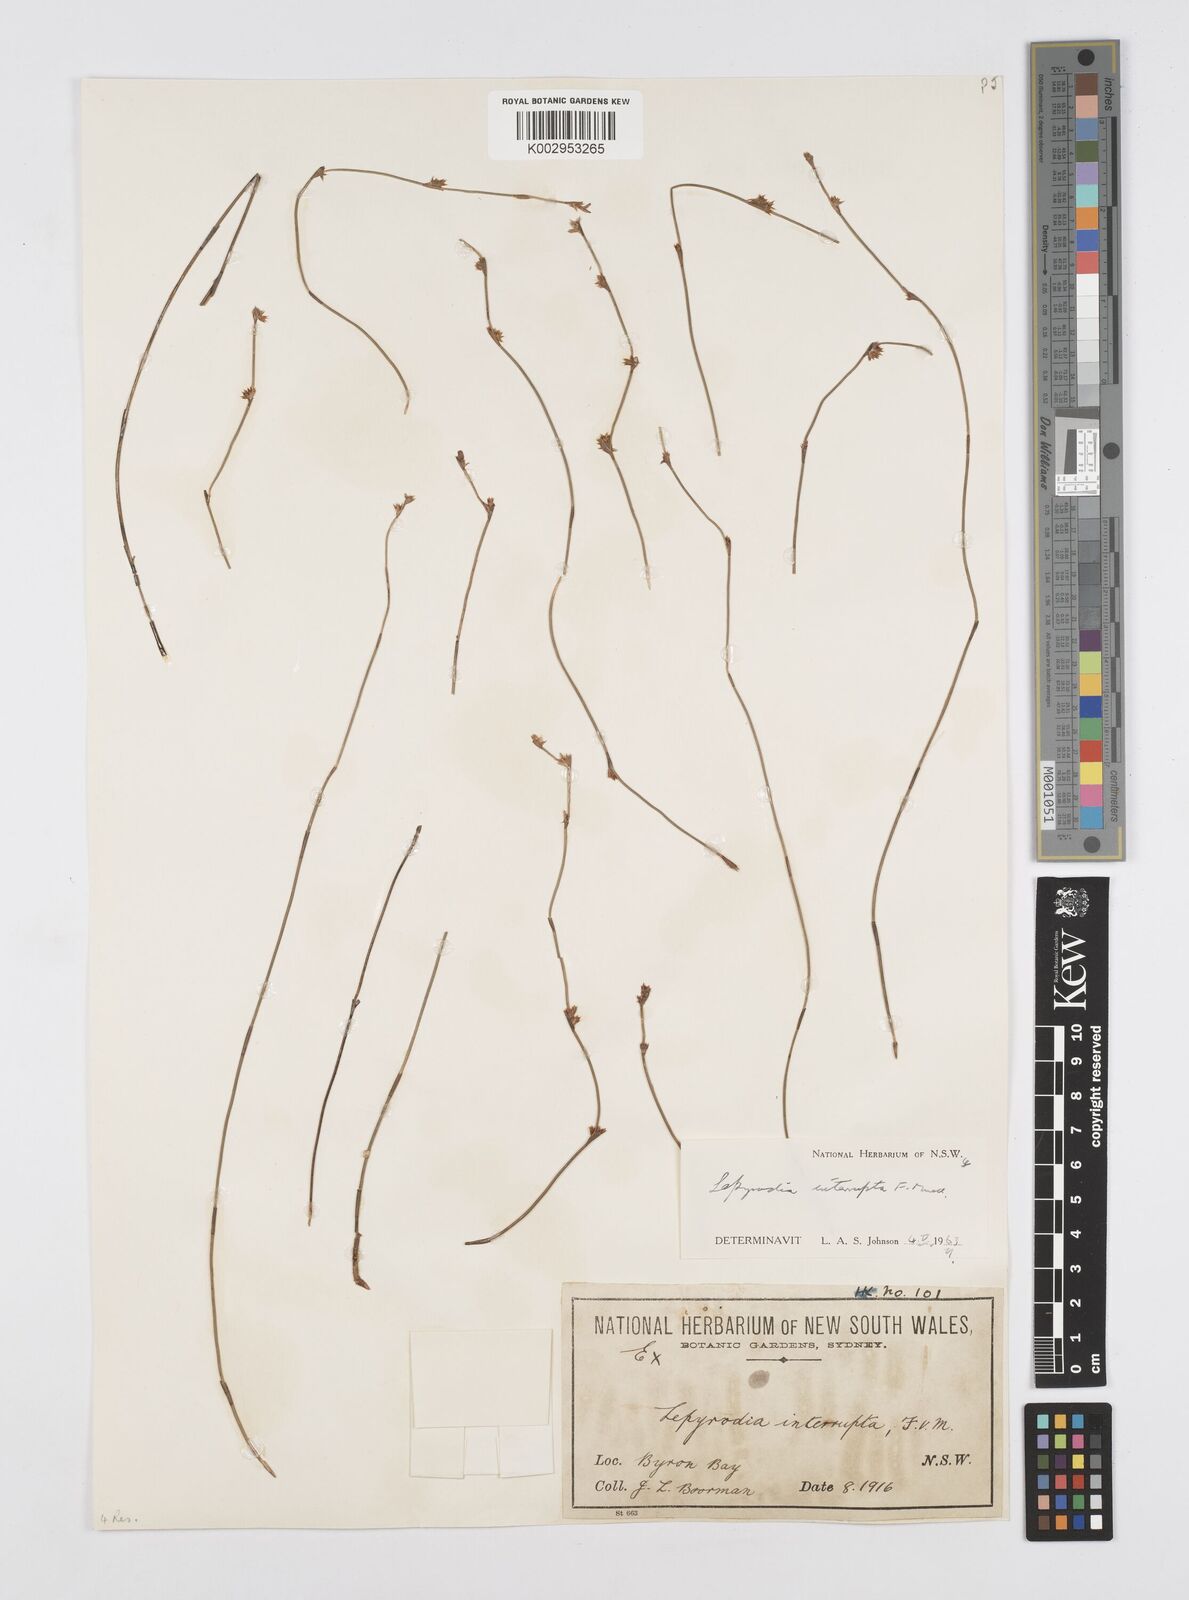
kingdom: Plantae
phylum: Tracheophyta
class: Liliopsida
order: Poales
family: Restionaceae
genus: Sporadanthus
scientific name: Sporadanthus interruptus
